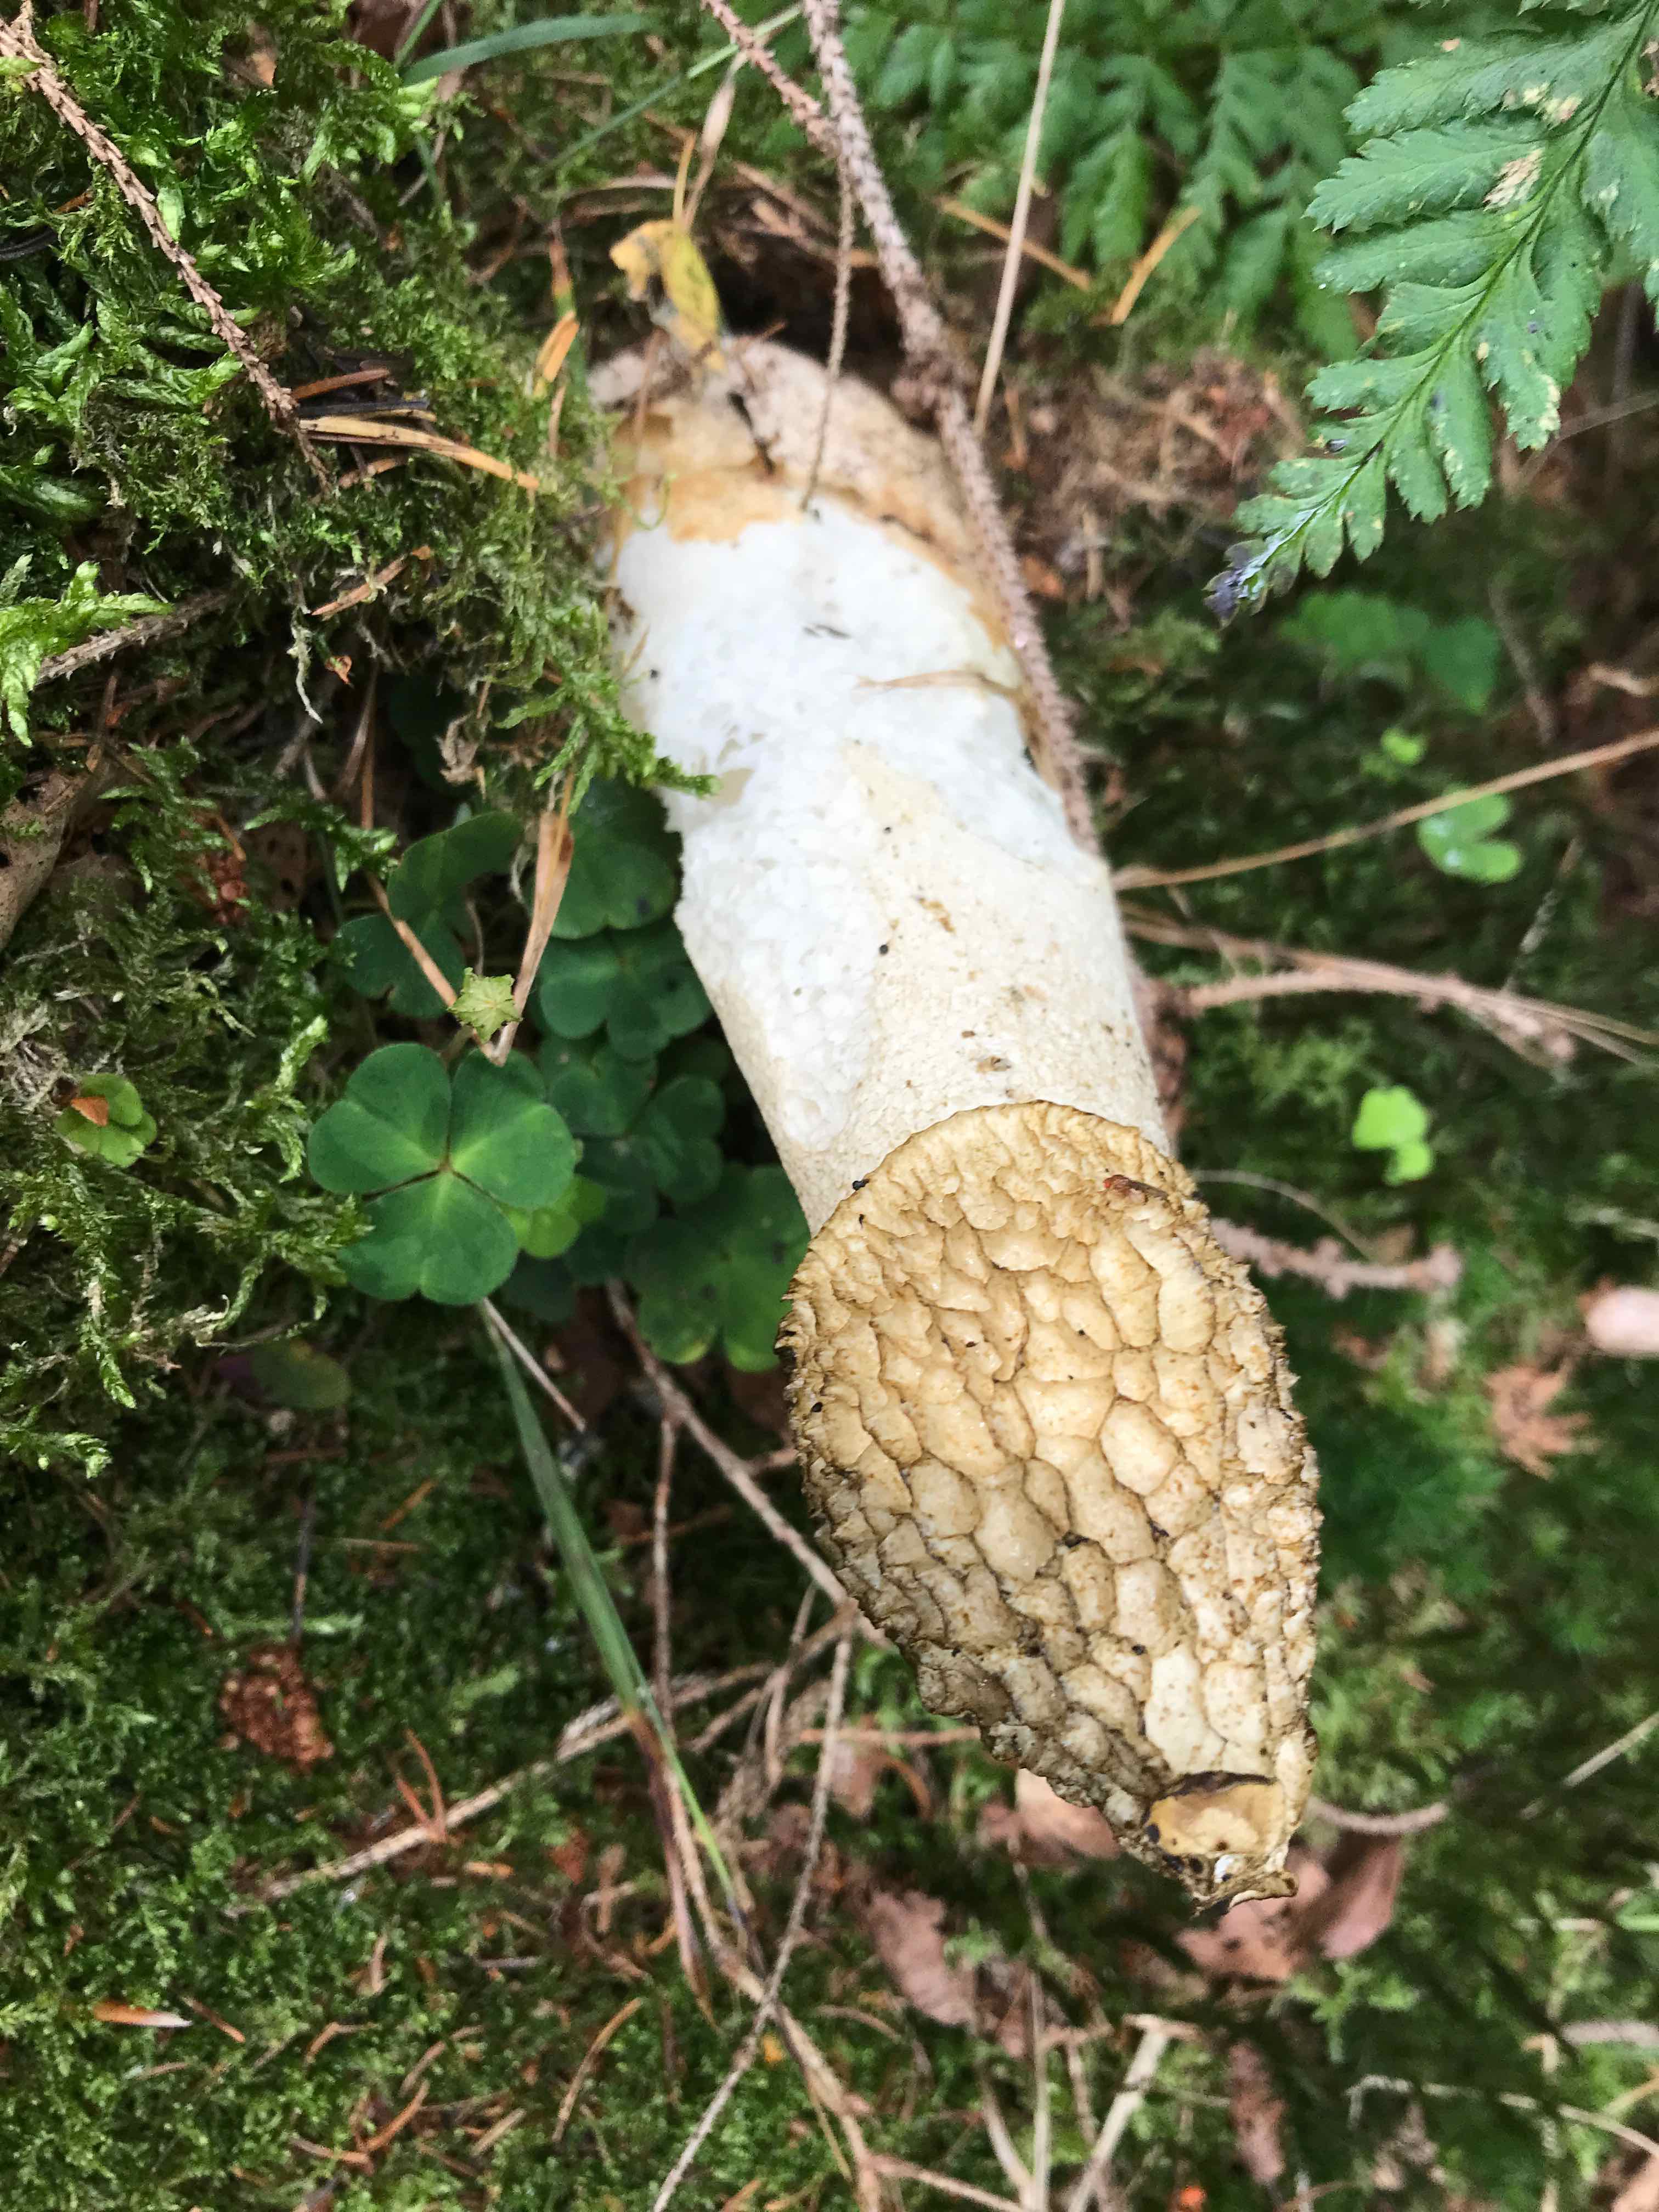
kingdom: Fungi
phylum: Basidiomycota
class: Agaricomycetes
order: Phallales
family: Phallaceae
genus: Phallus
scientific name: Phallus impudicus
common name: almindelig stinksvamp
